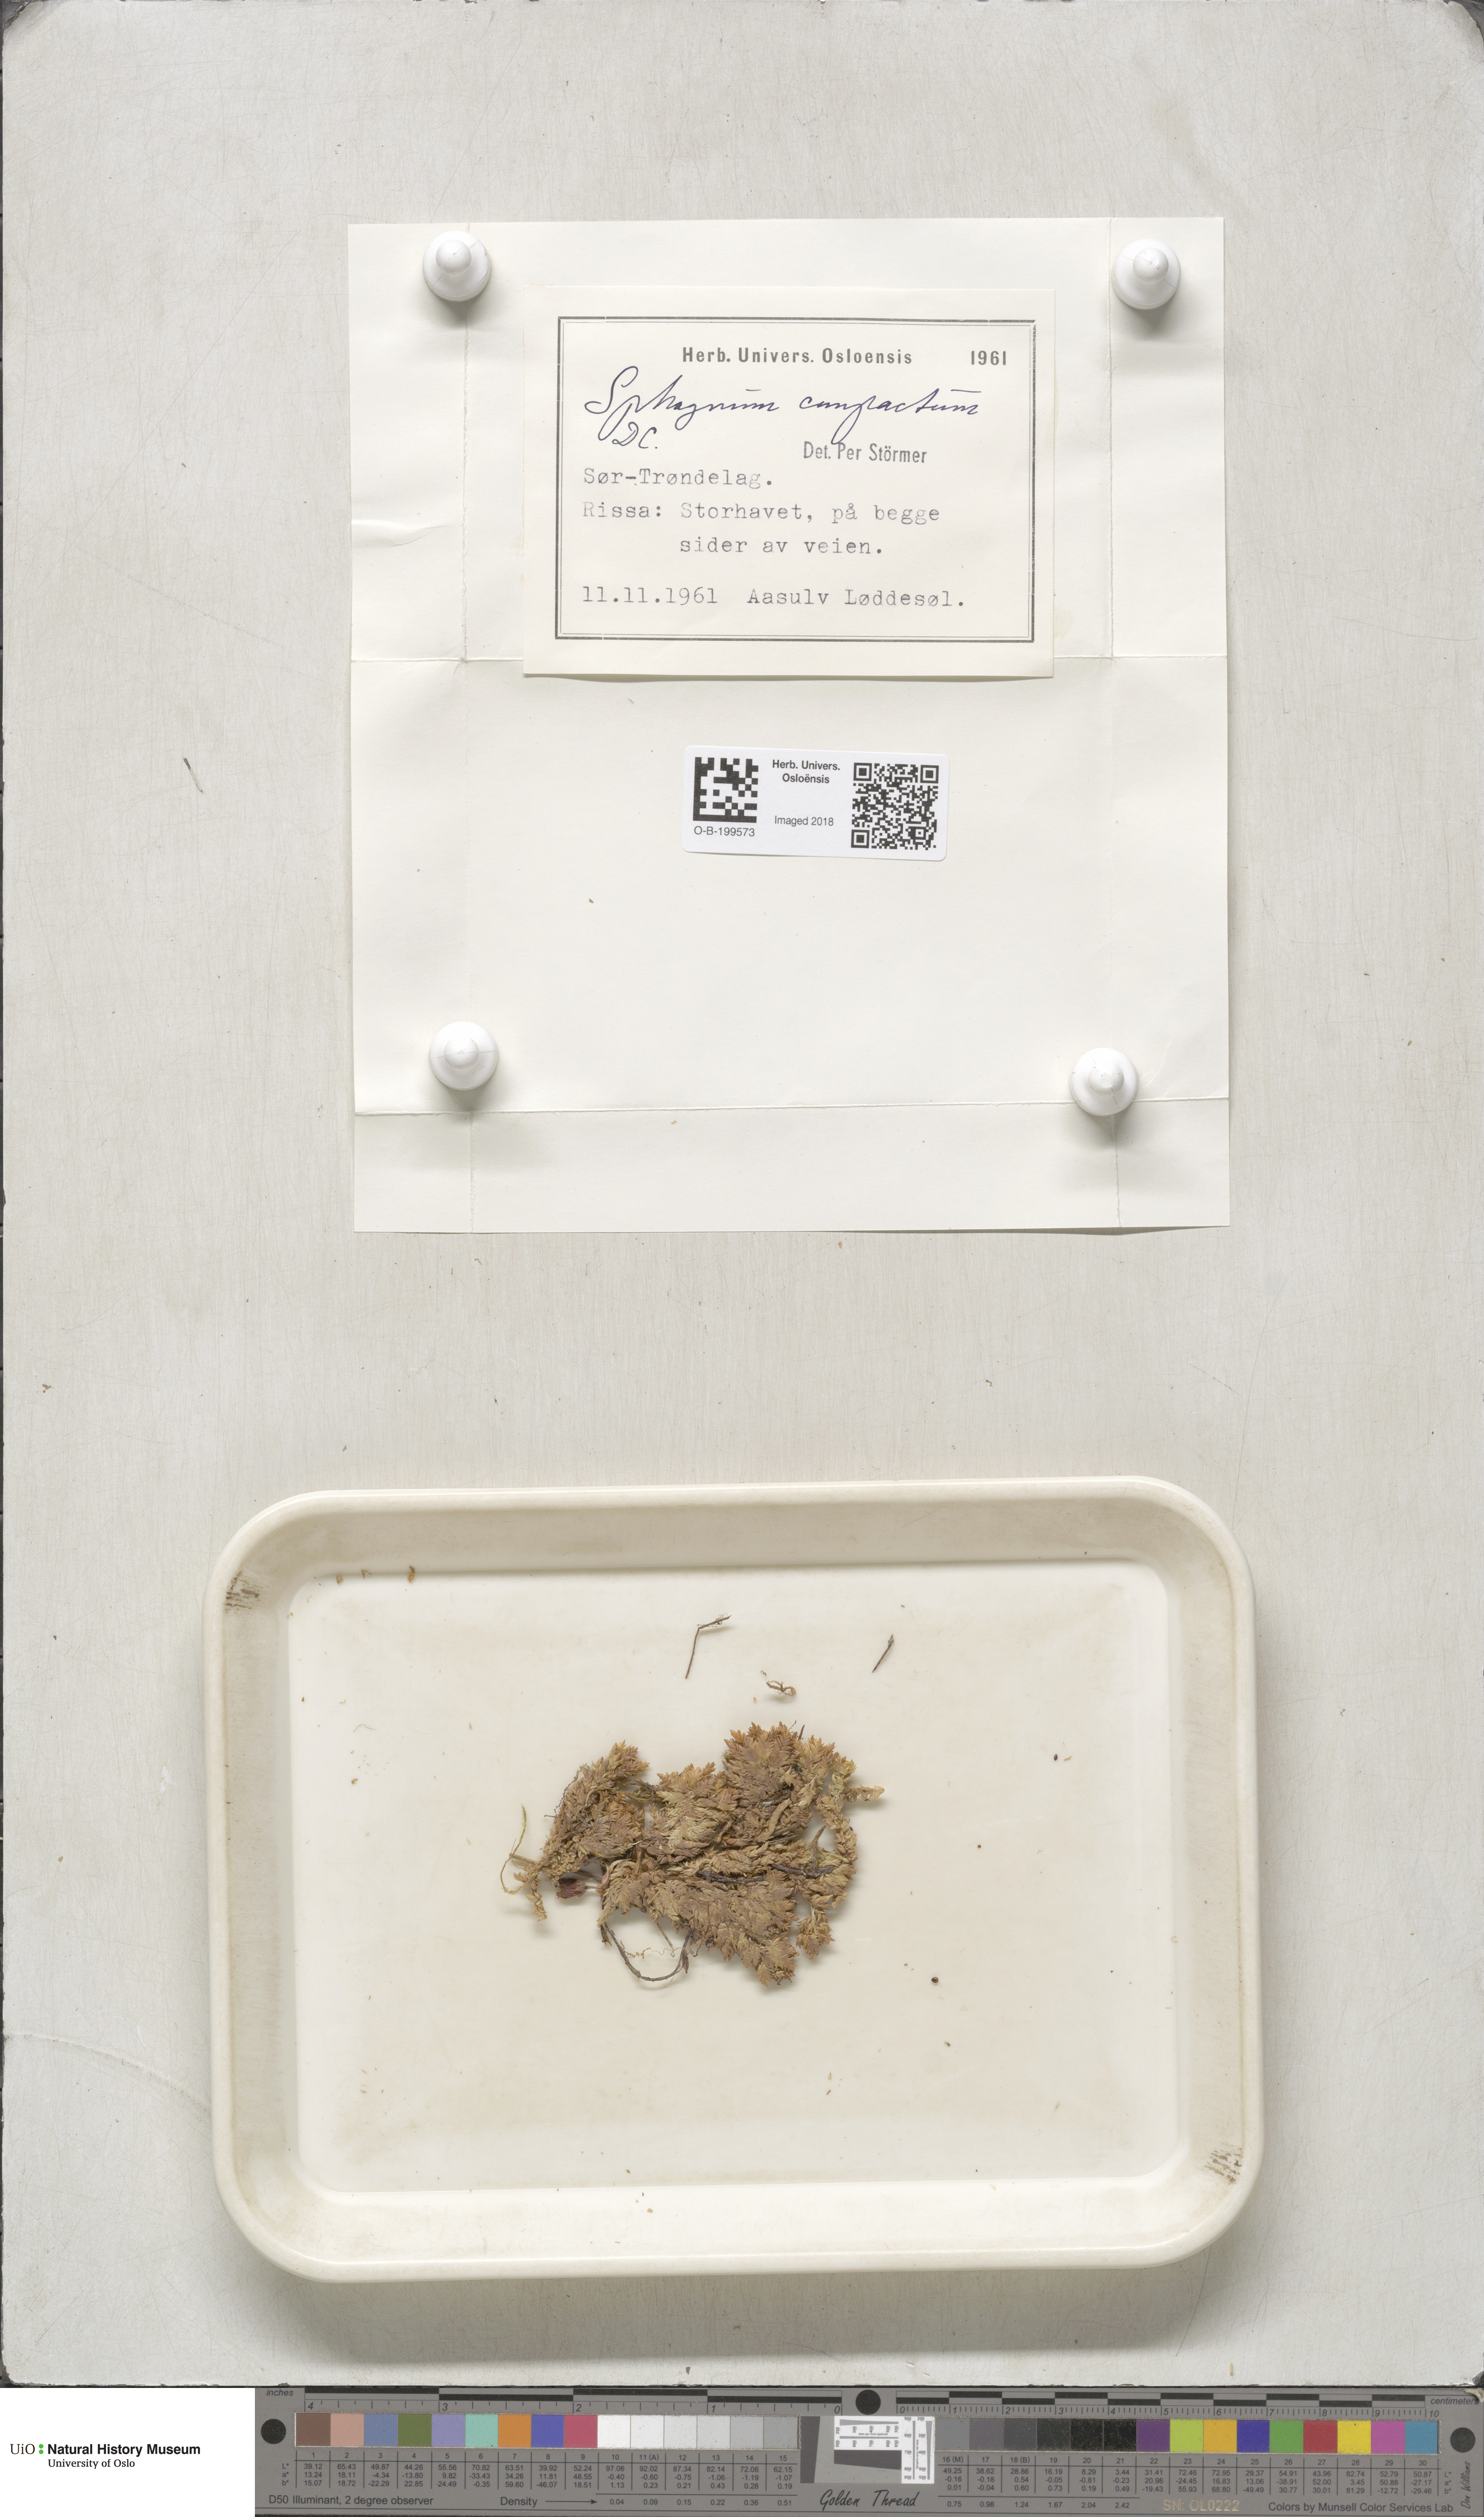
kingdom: Plantae
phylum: Bryophyta
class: Sphagnopsida
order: Sphagnales
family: Sphagnaceae
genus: Sphagnum
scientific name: Sphagnum compactum
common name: Compact peat moss
